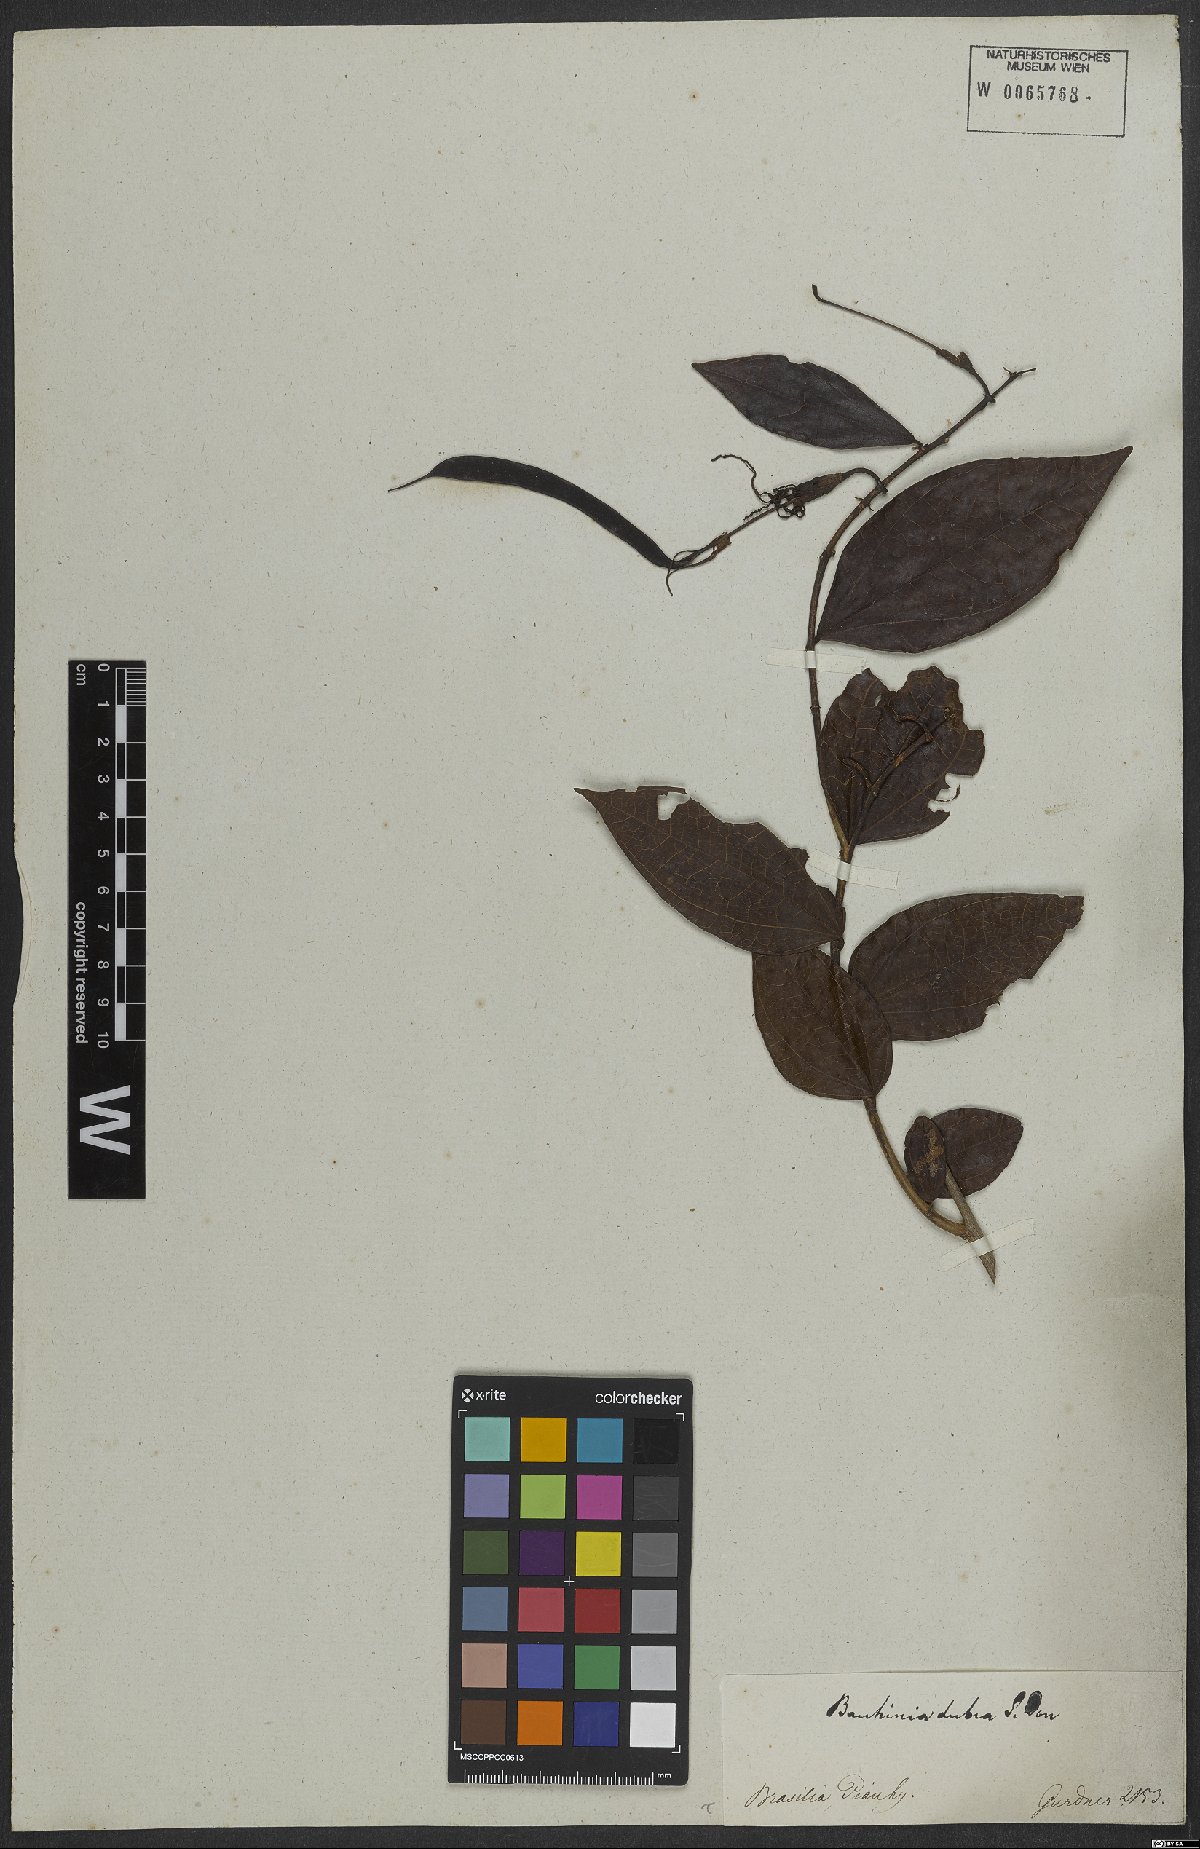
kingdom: Plantae
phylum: Tracheophyta
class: Magnoliopsida
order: Fabales
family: Fabaceae
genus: Bauhinia
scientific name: Bauhinia dubia
